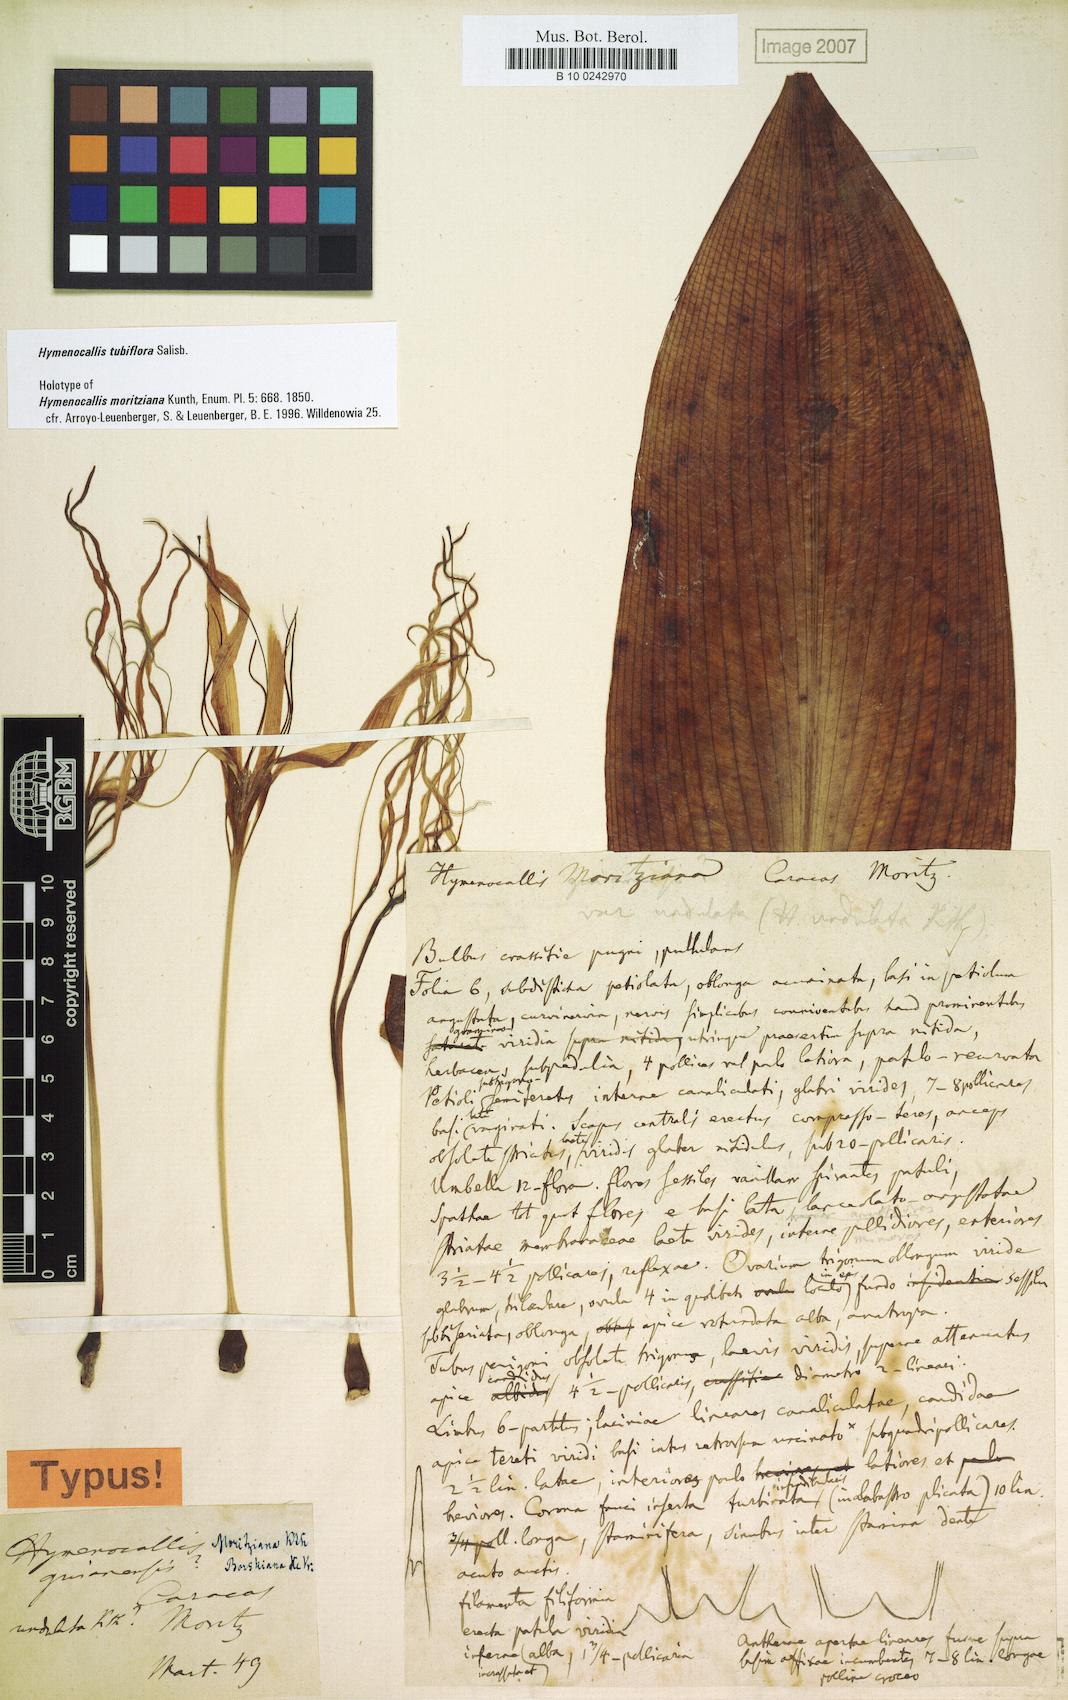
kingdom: Plantae
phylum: Tracheophyta
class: Liliopsida
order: Asparagales
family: Amaryllidaceae
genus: Hymenocallis
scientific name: Hymenocallis tubiflora
